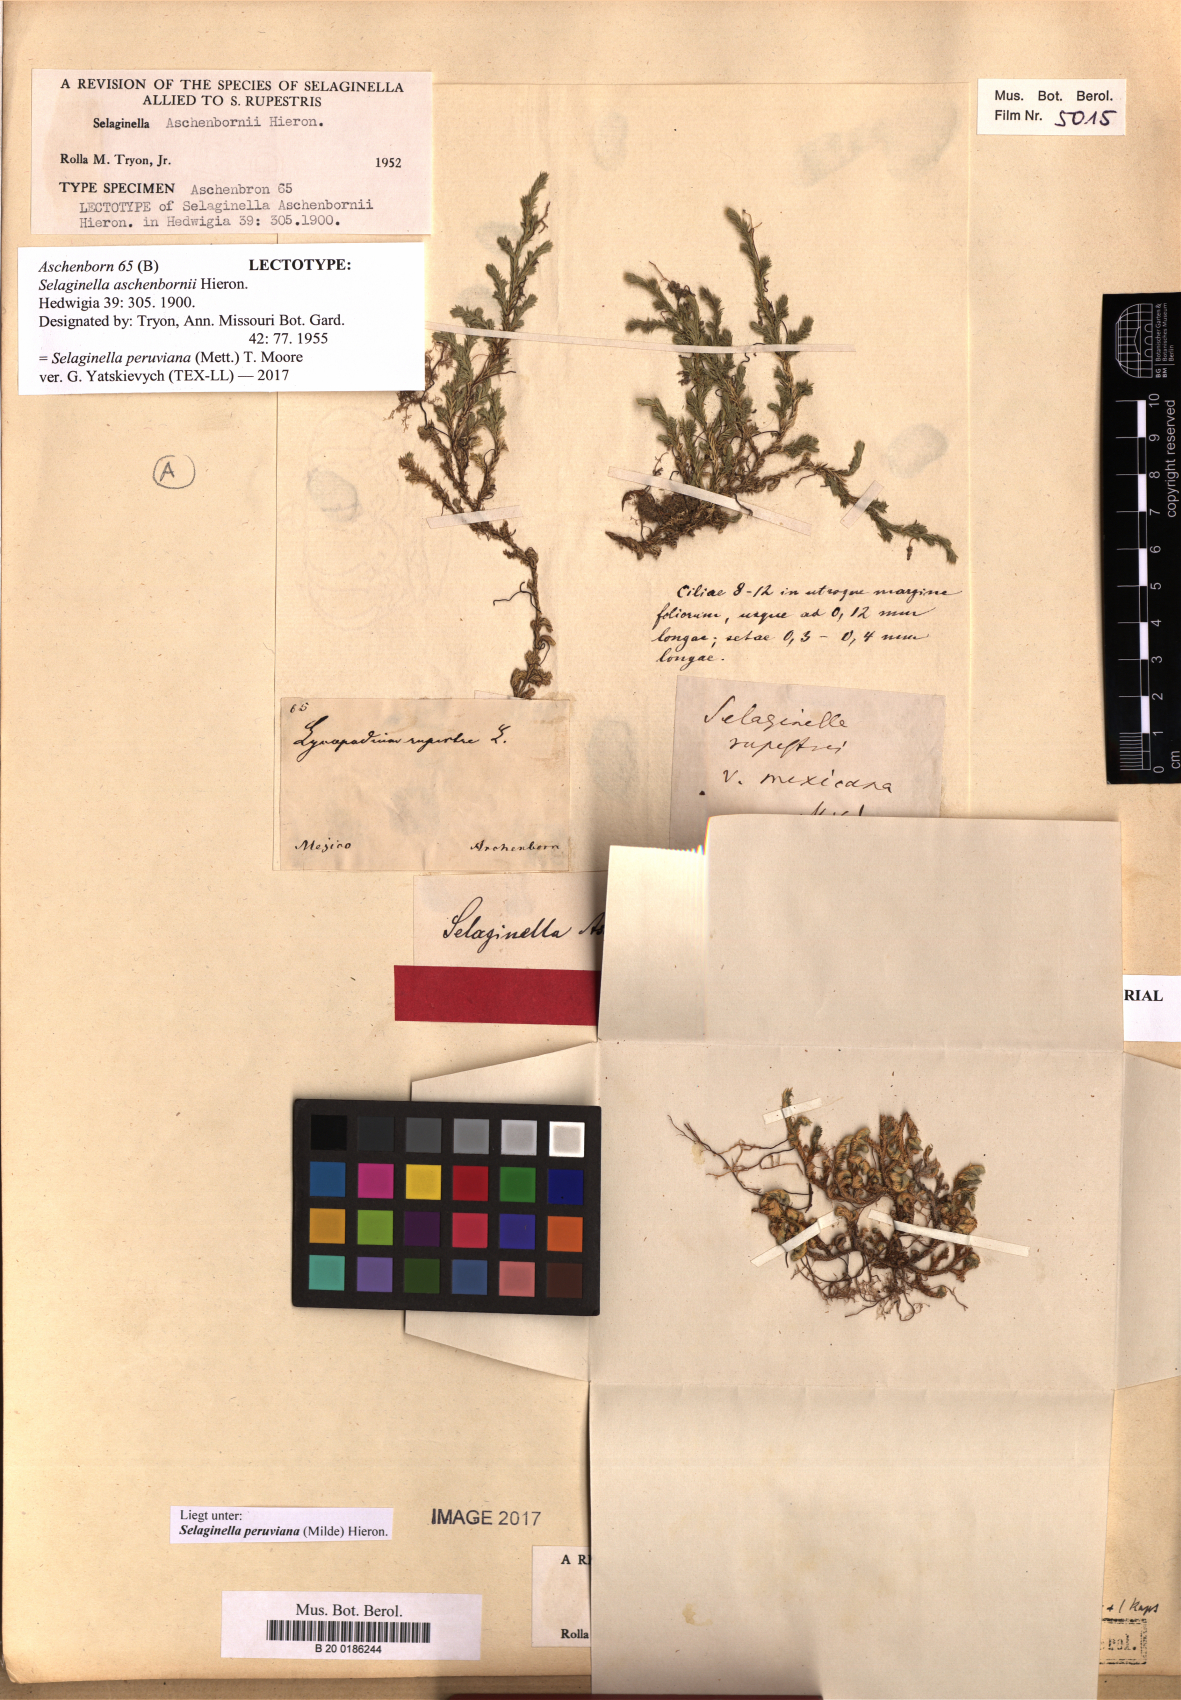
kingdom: Plantae
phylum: Tracheophyta
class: Lycopodiopsida
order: Selaginellales
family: Selaginellaceae
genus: Selaginella
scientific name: Selaginella arizonica
